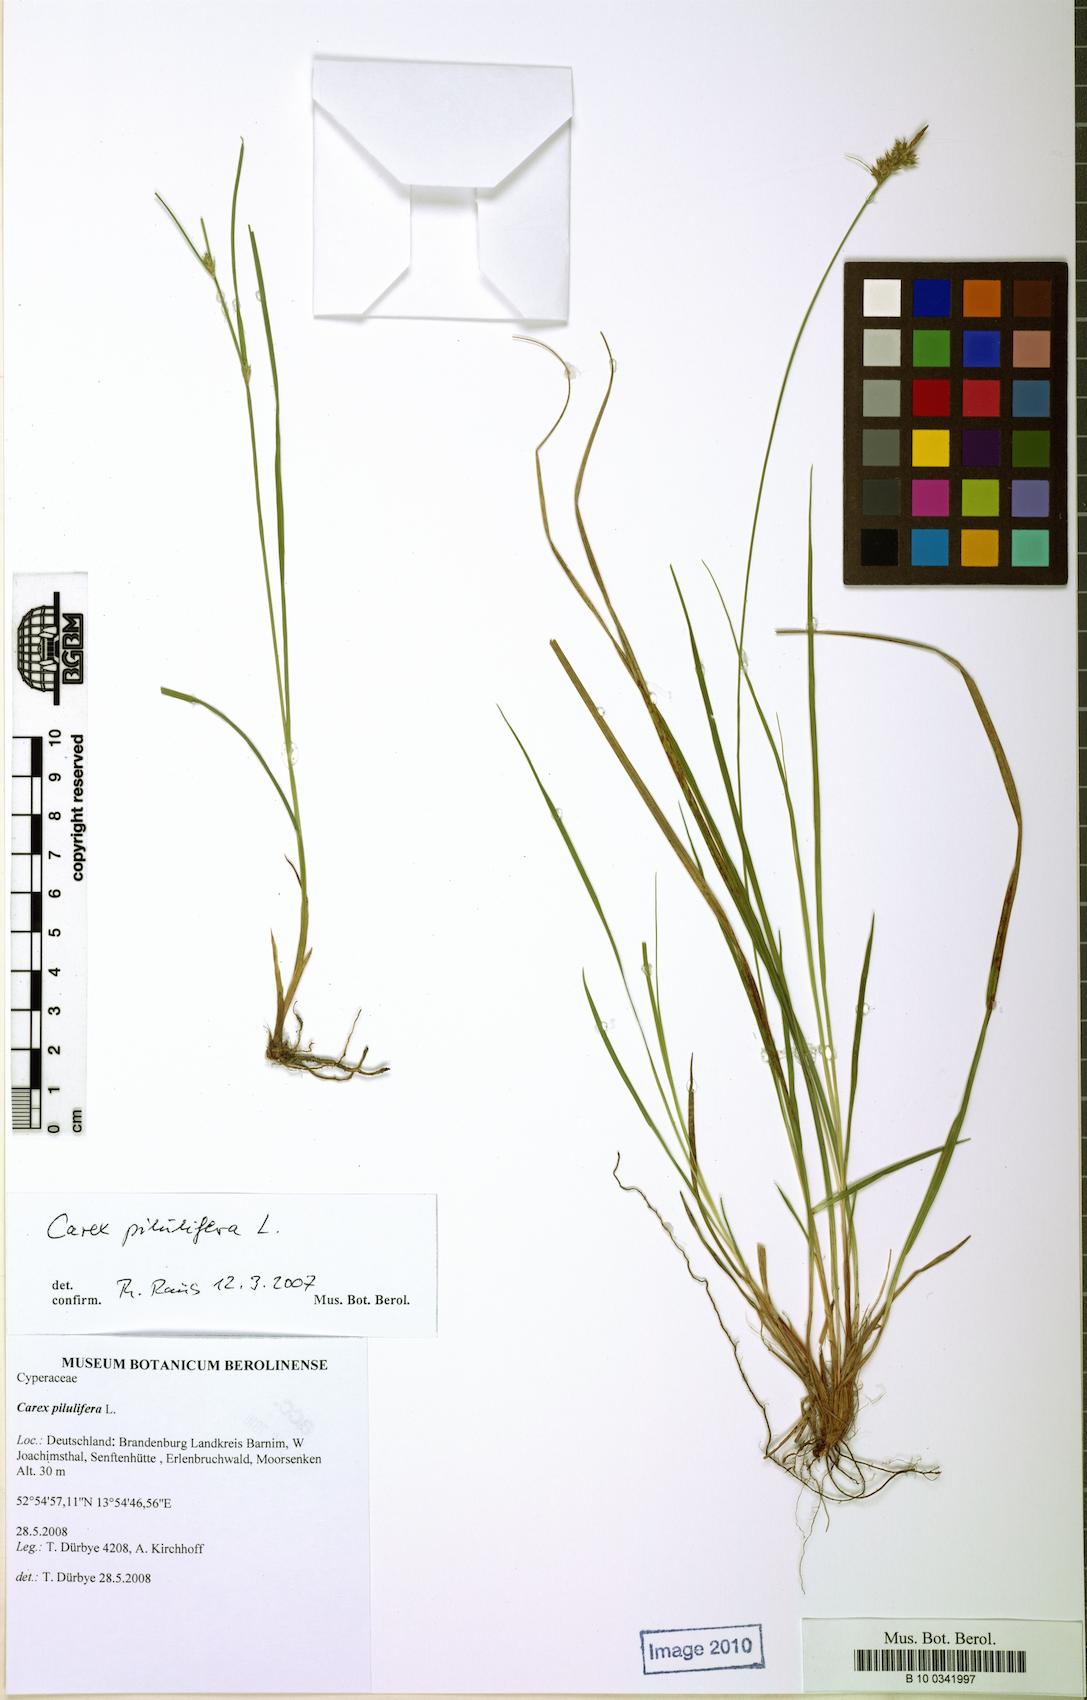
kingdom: Plantae
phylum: Tracheophyta
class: Liliopsida
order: Poales
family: Cyperaceae
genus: Carex
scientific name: Carex pilulifera
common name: Pill sedge
